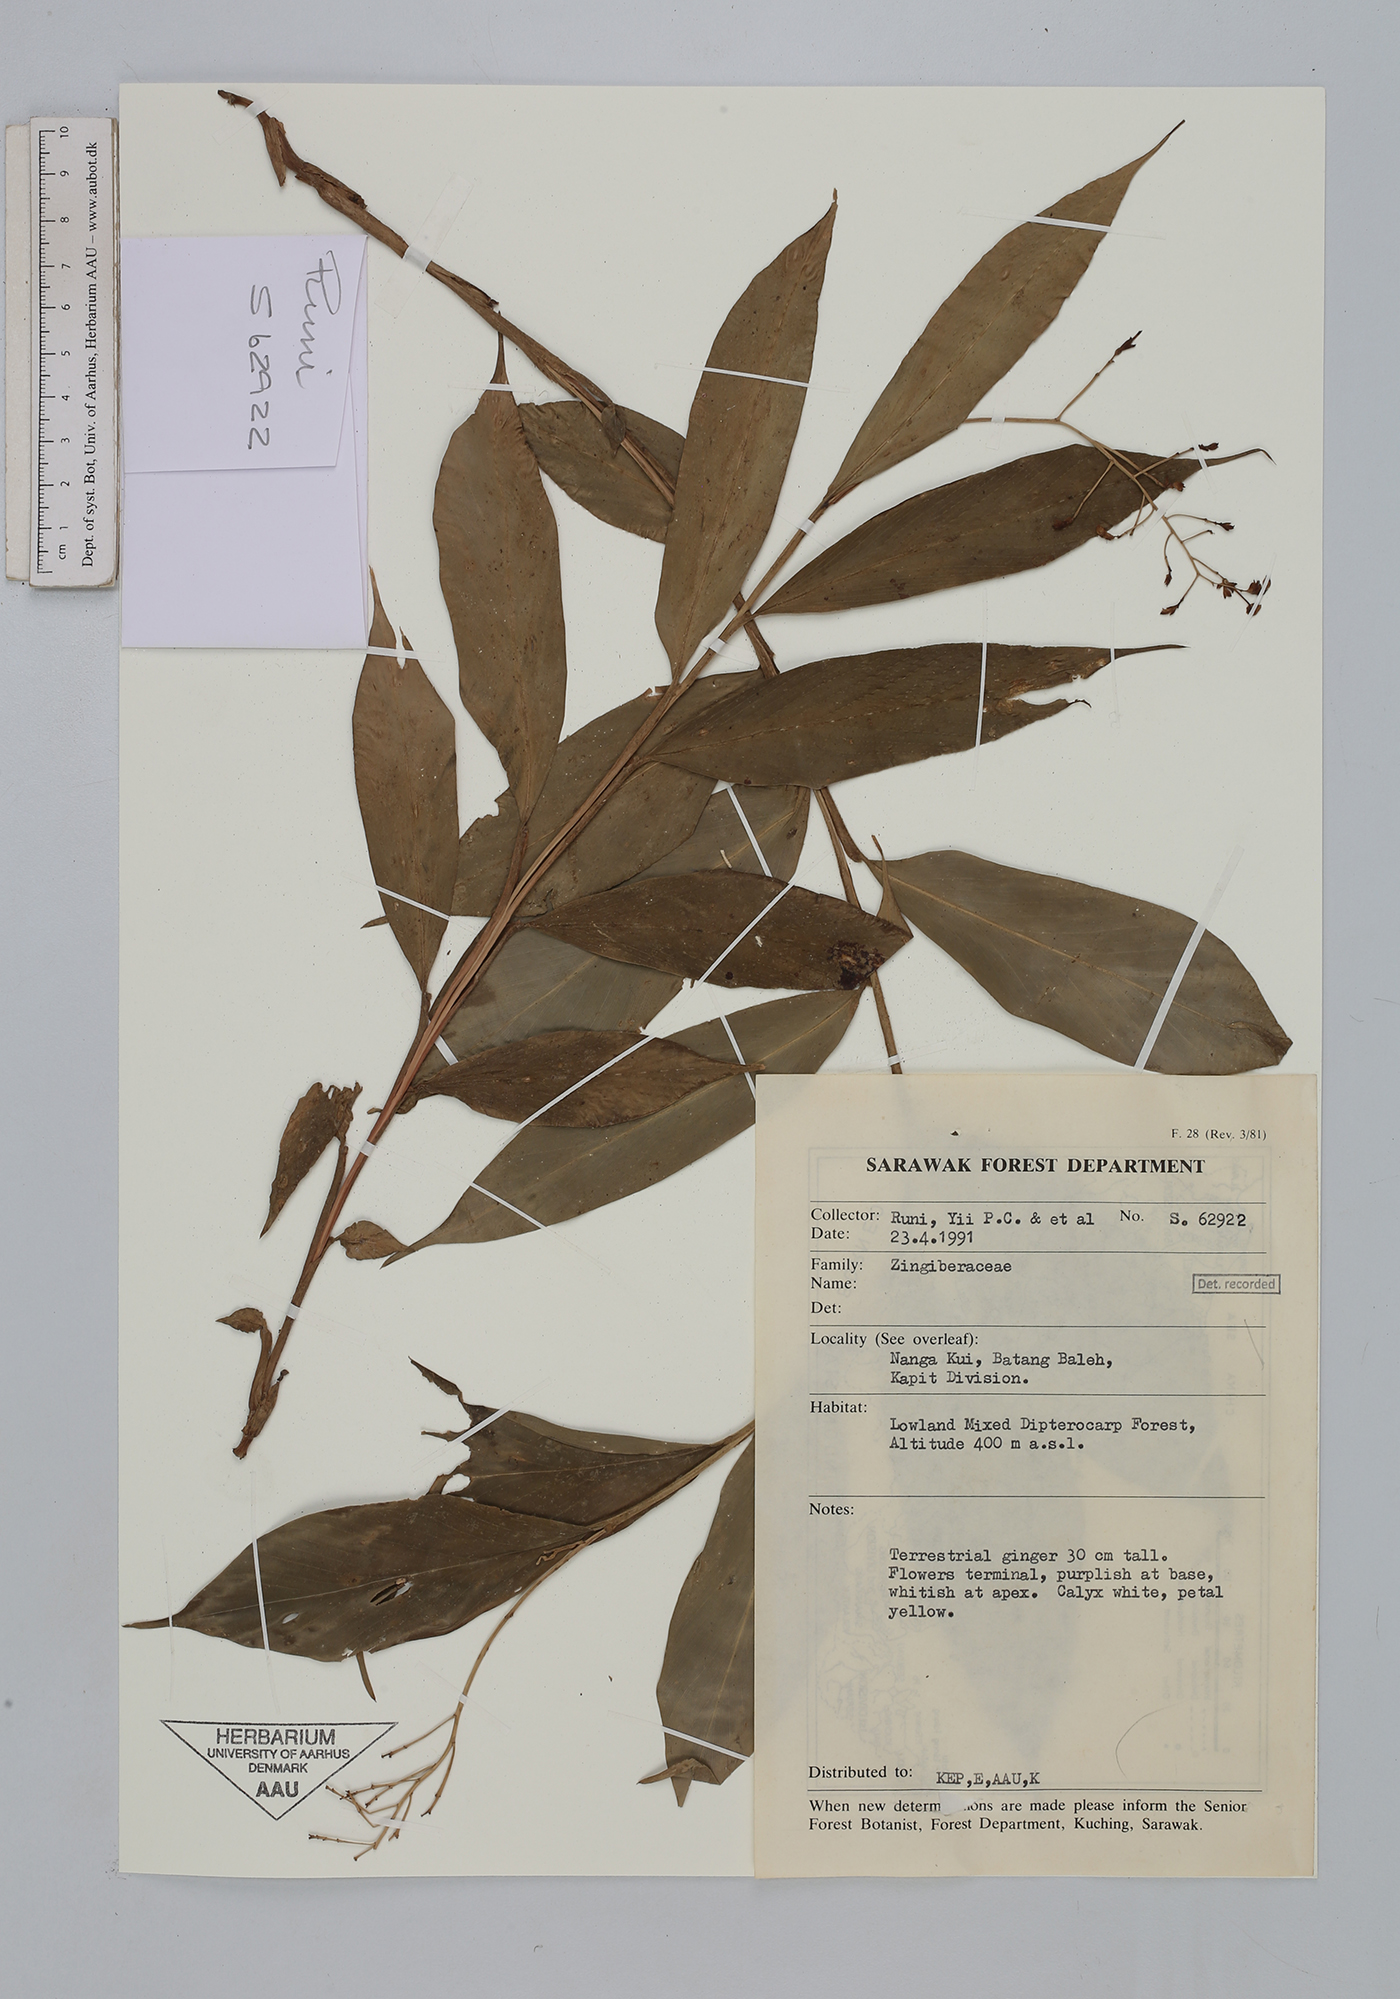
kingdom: Plantae
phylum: Tracheophyta
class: Liliopsida
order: Zingiberales
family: Zingiberaceae
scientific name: Zingiberaceae
